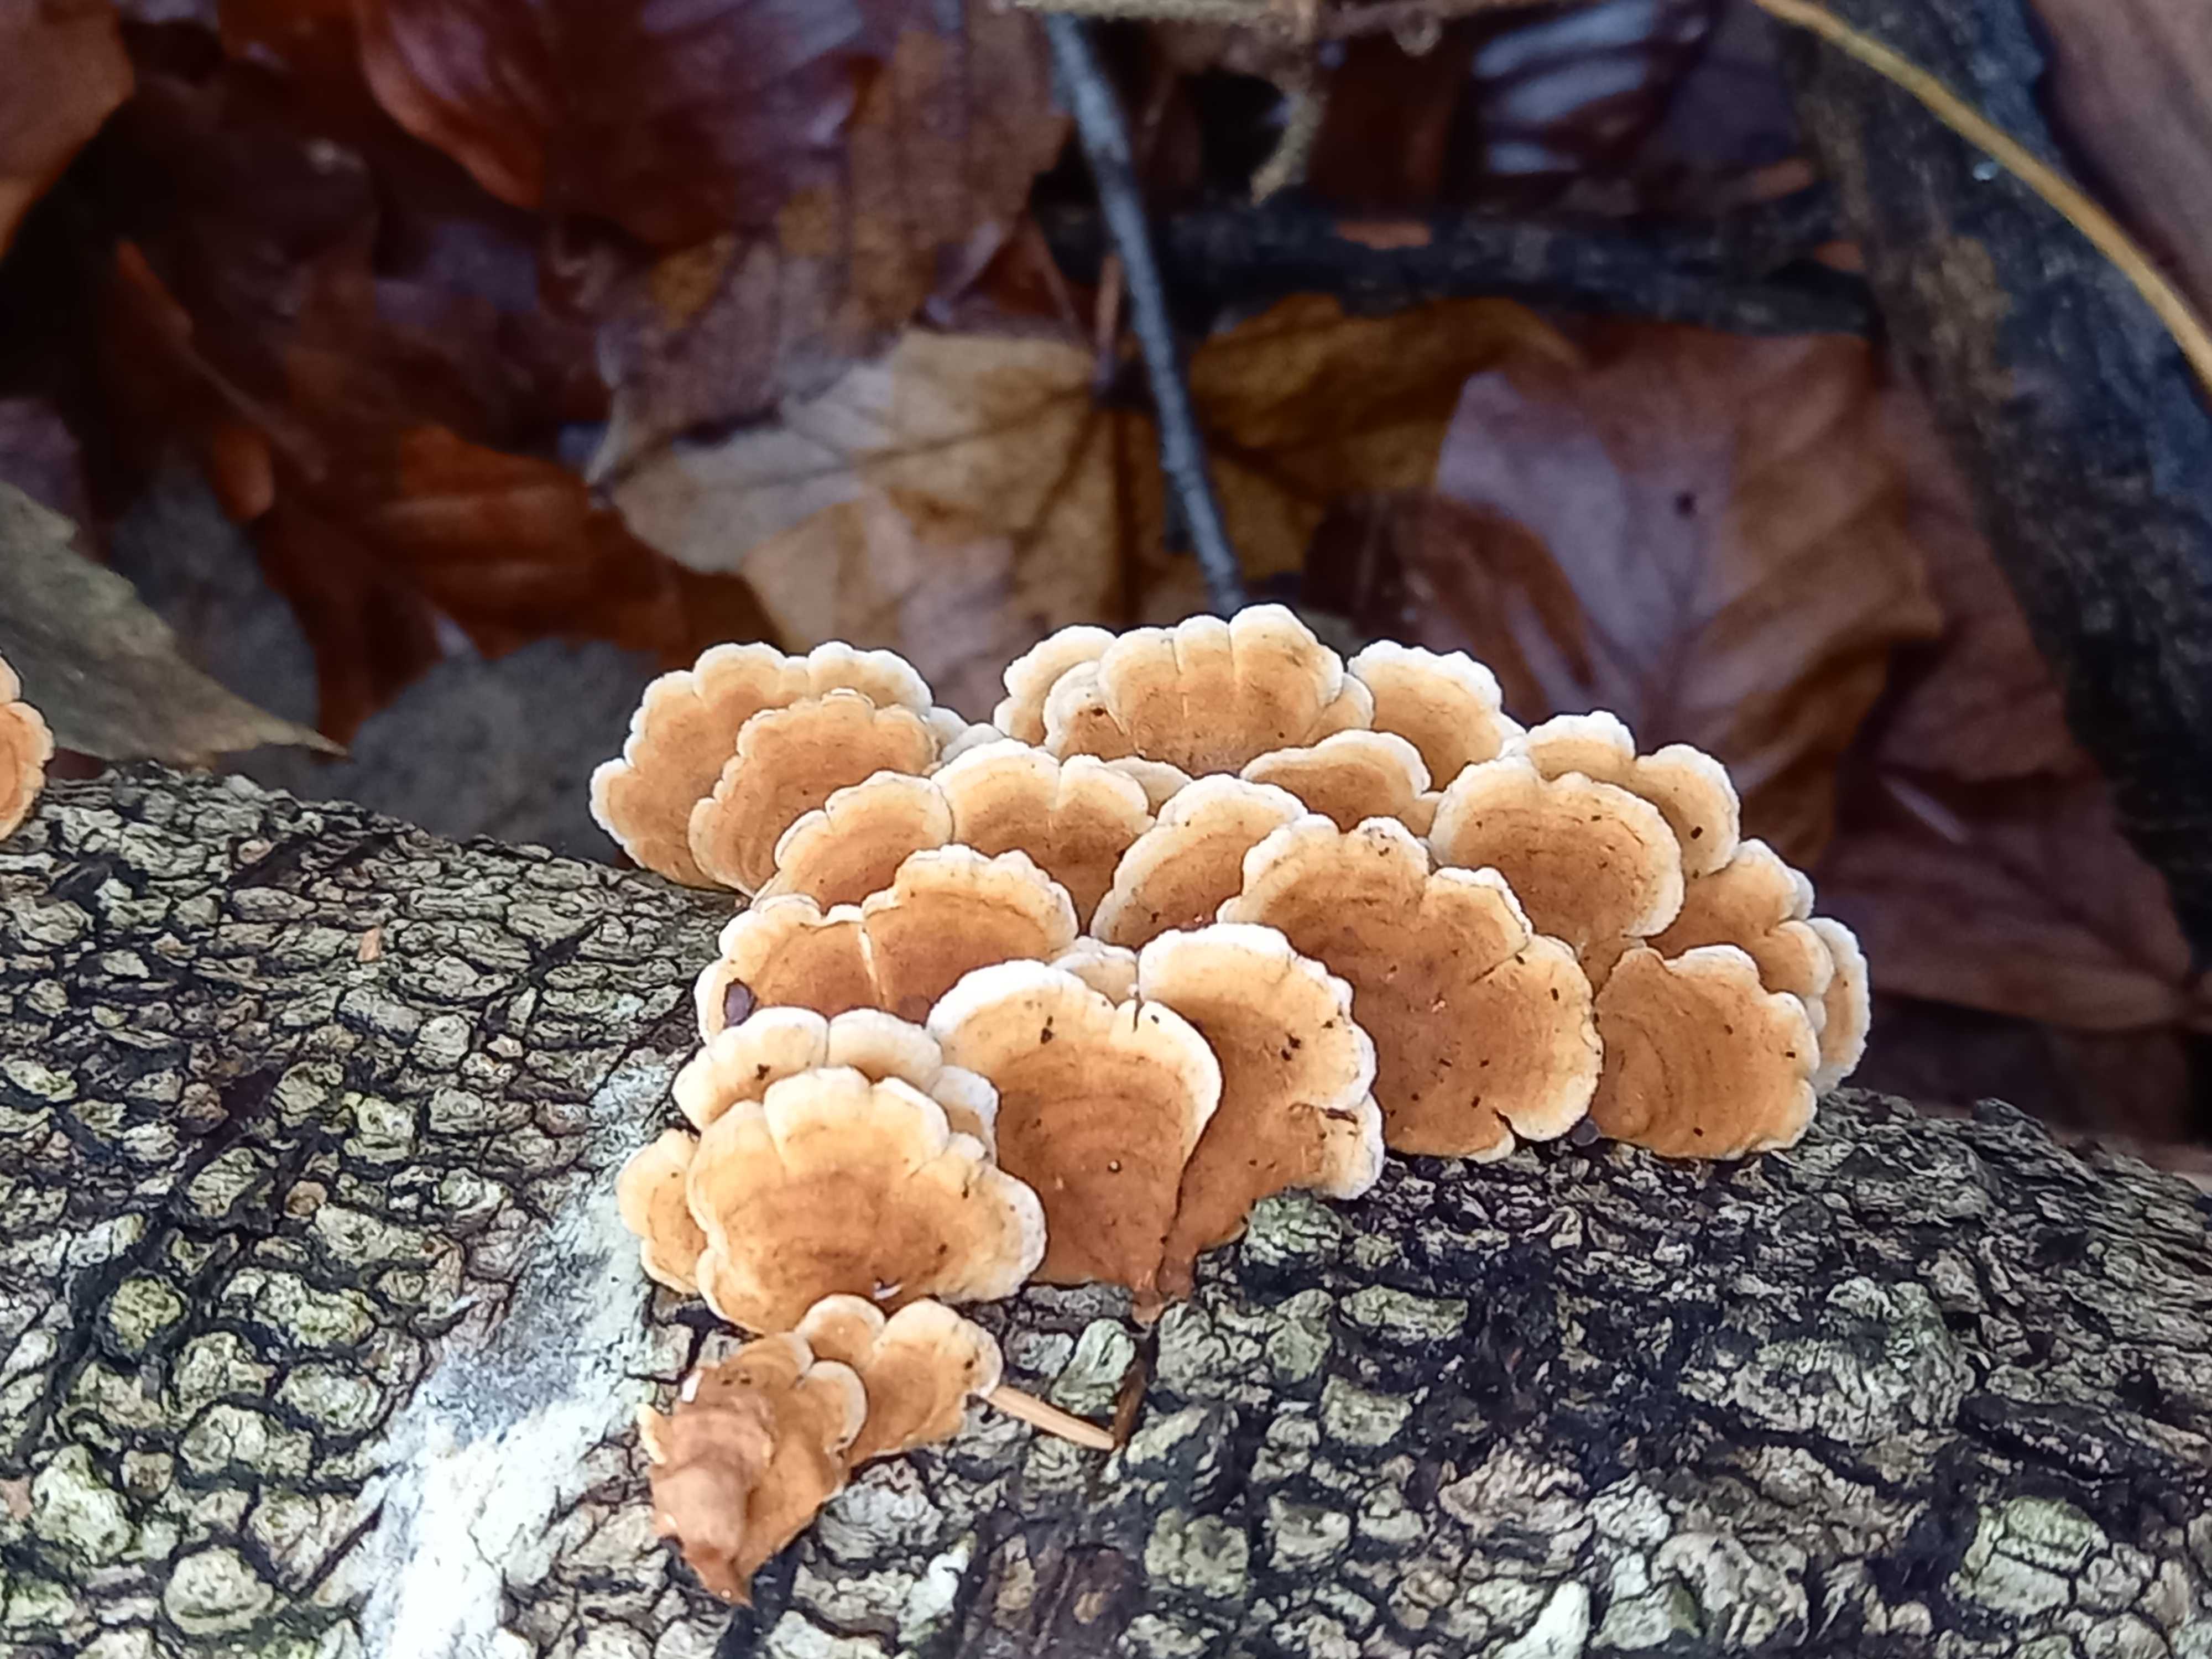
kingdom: Fungi
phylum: Basidiomycota
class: Agaricomycetes
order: Amylocorticiales
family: Amylocorticiaceae
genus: Plicaturopsis
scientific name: Plicaturopsis crispa
